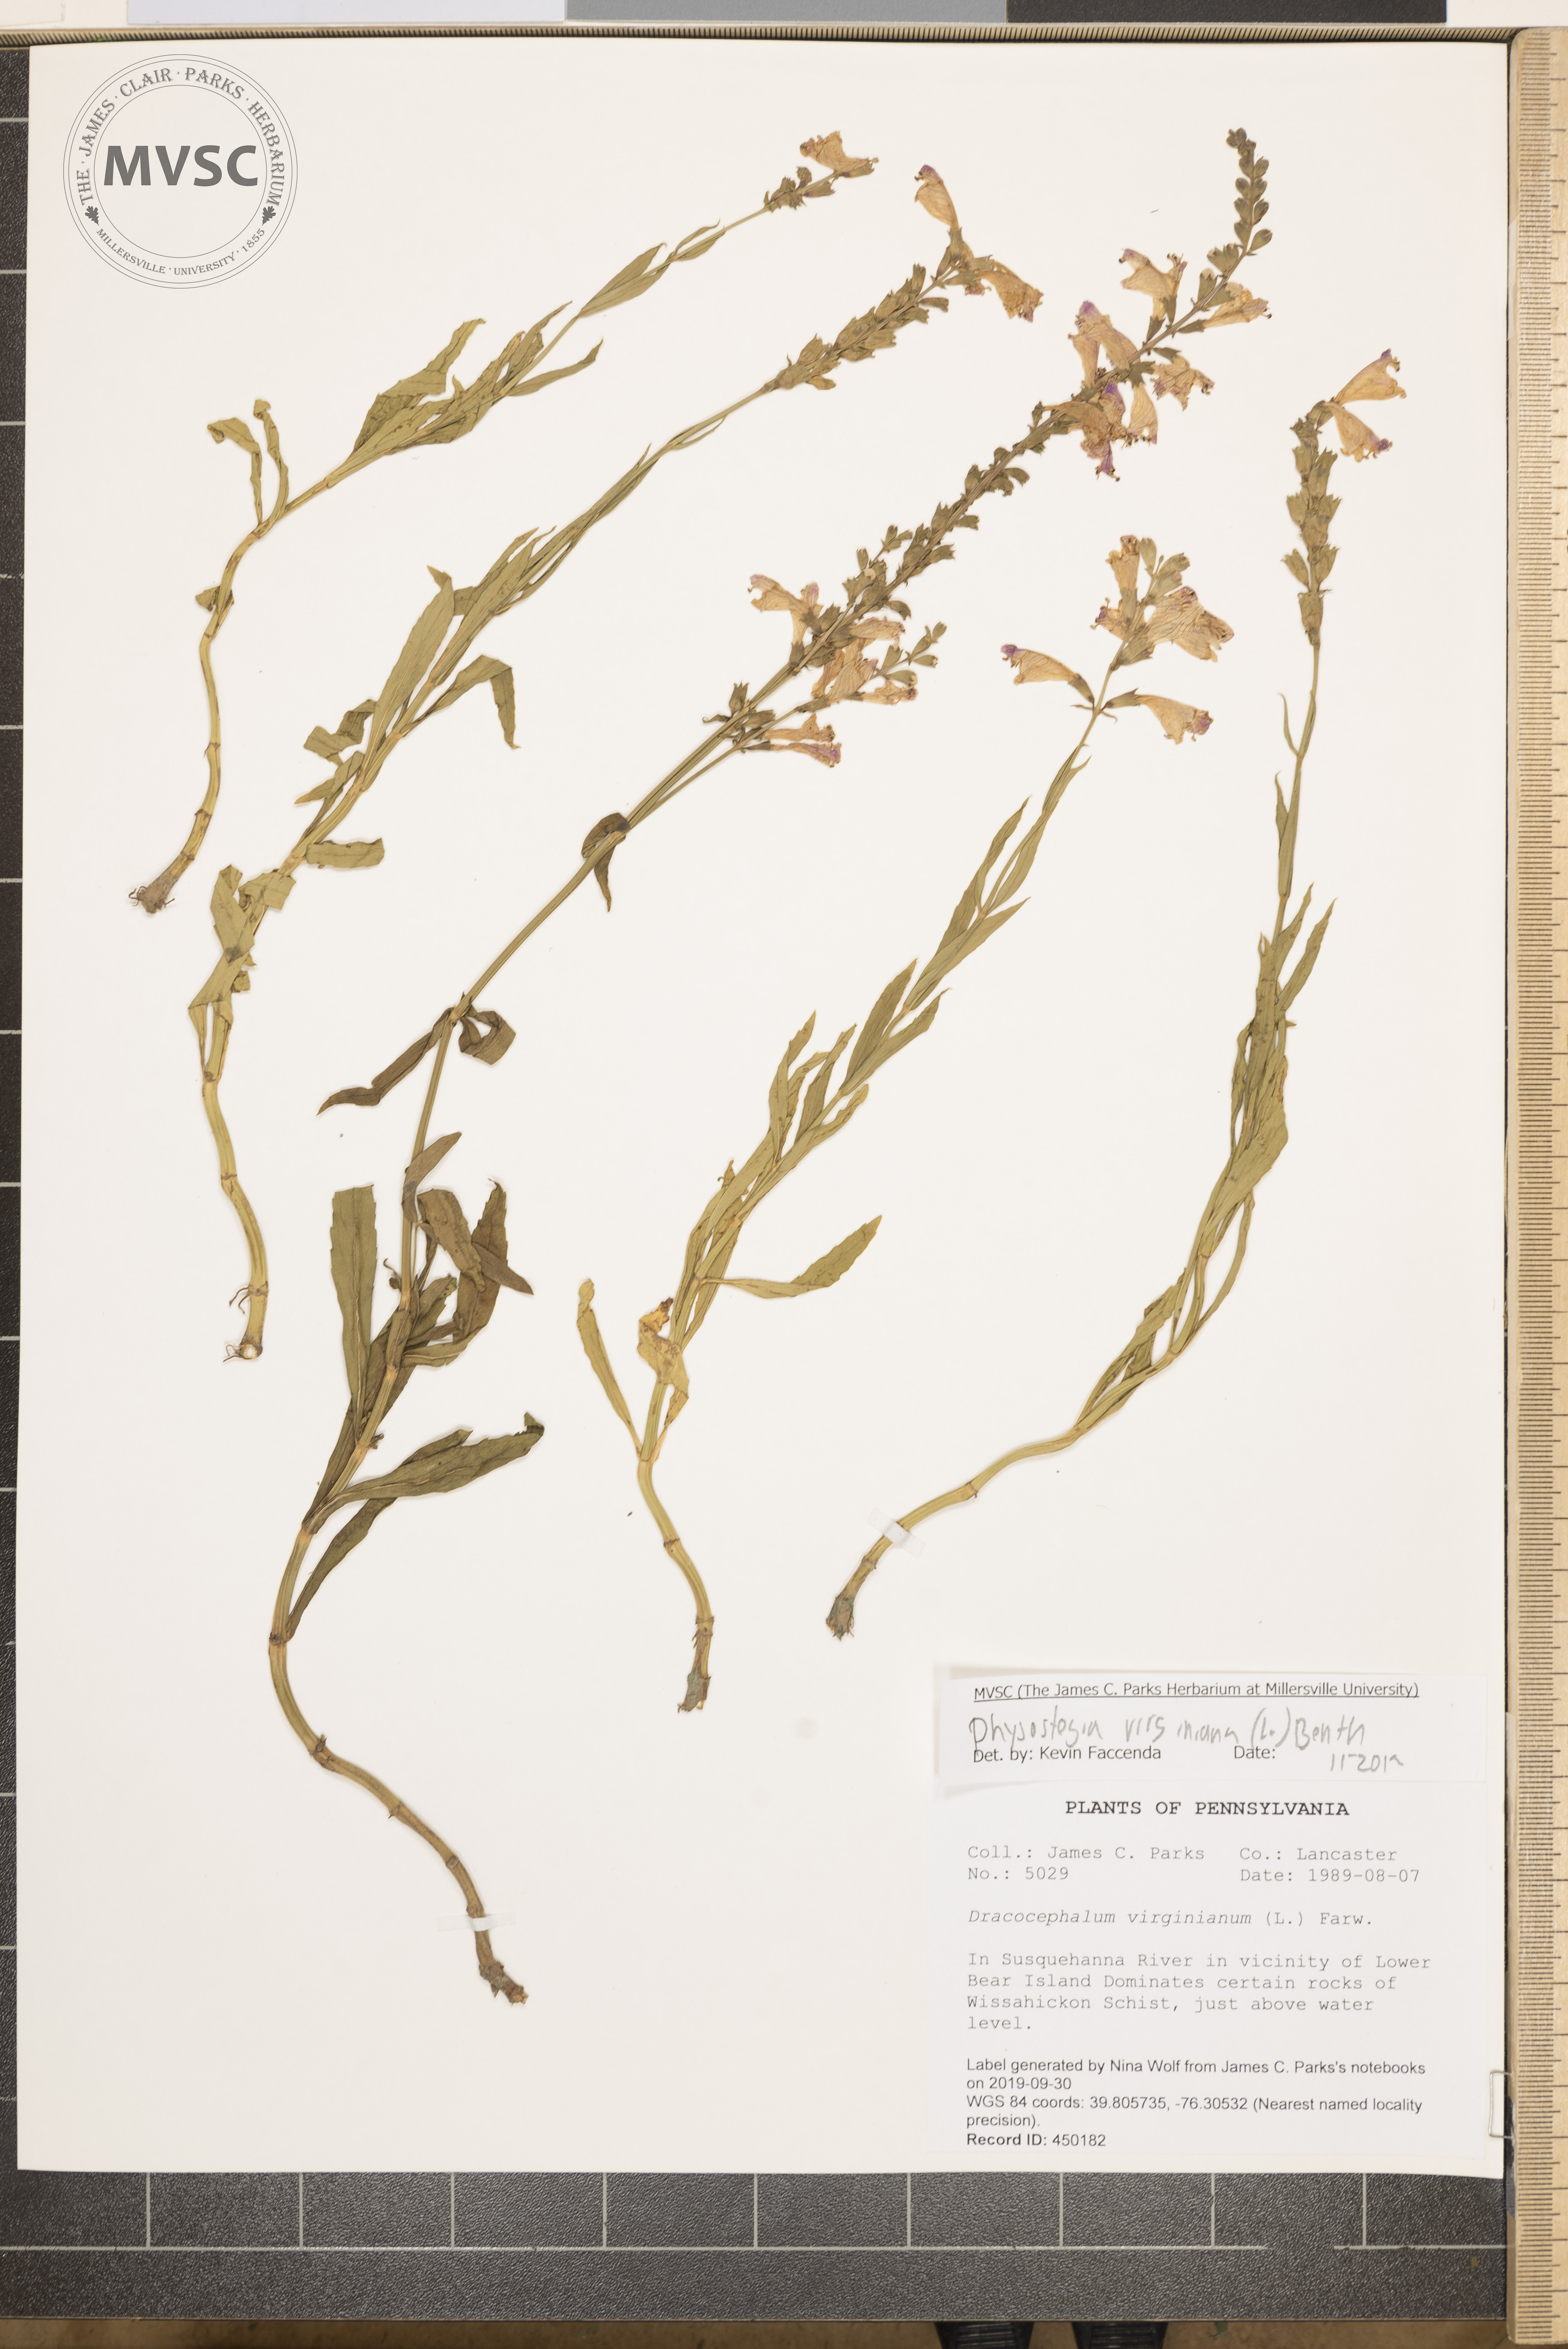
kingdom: Plantae
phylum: Tracheophyta
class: Magnoliopsida
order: Lamiales
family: Lamiaceae
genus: Physostegia
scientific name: Physostegia virginiana
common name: Obedient-plant
